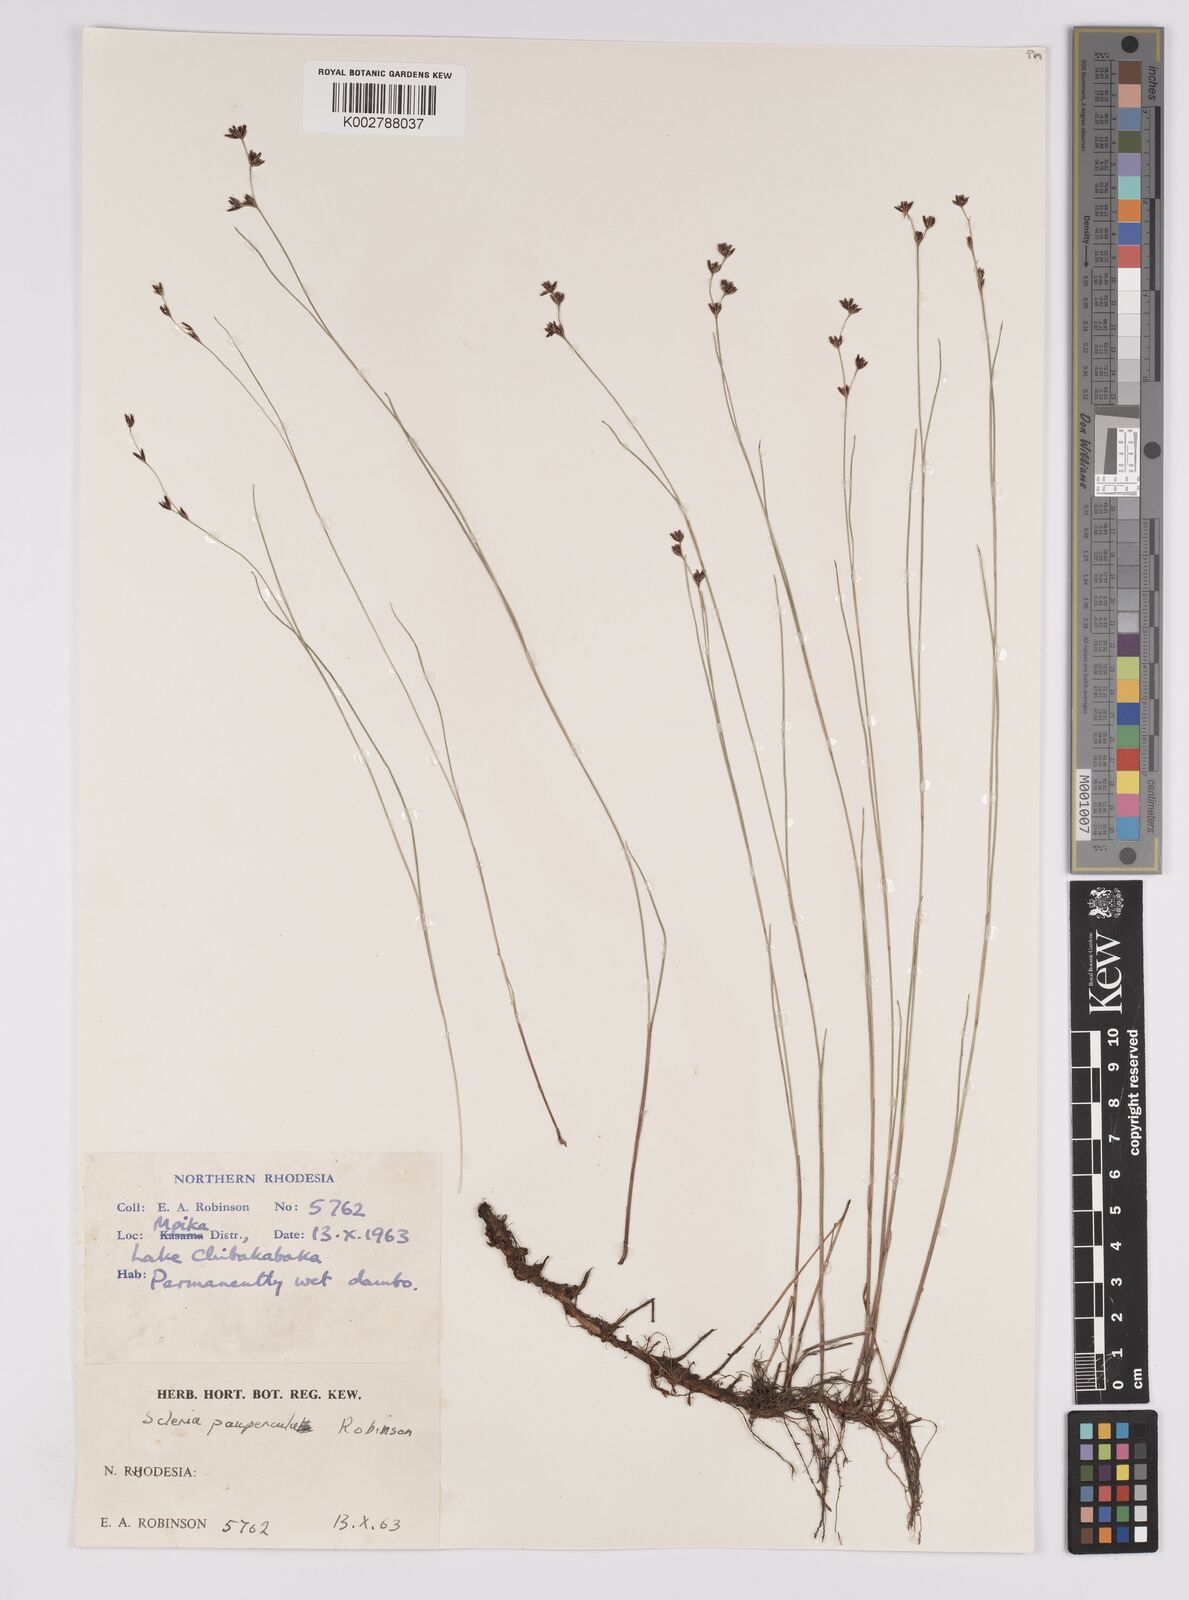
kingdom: Plantae
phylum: Tracheophyta
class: Liliopsida
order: Poales
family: Cyperaceae
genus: Scleria
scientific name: Scleria paupercula
